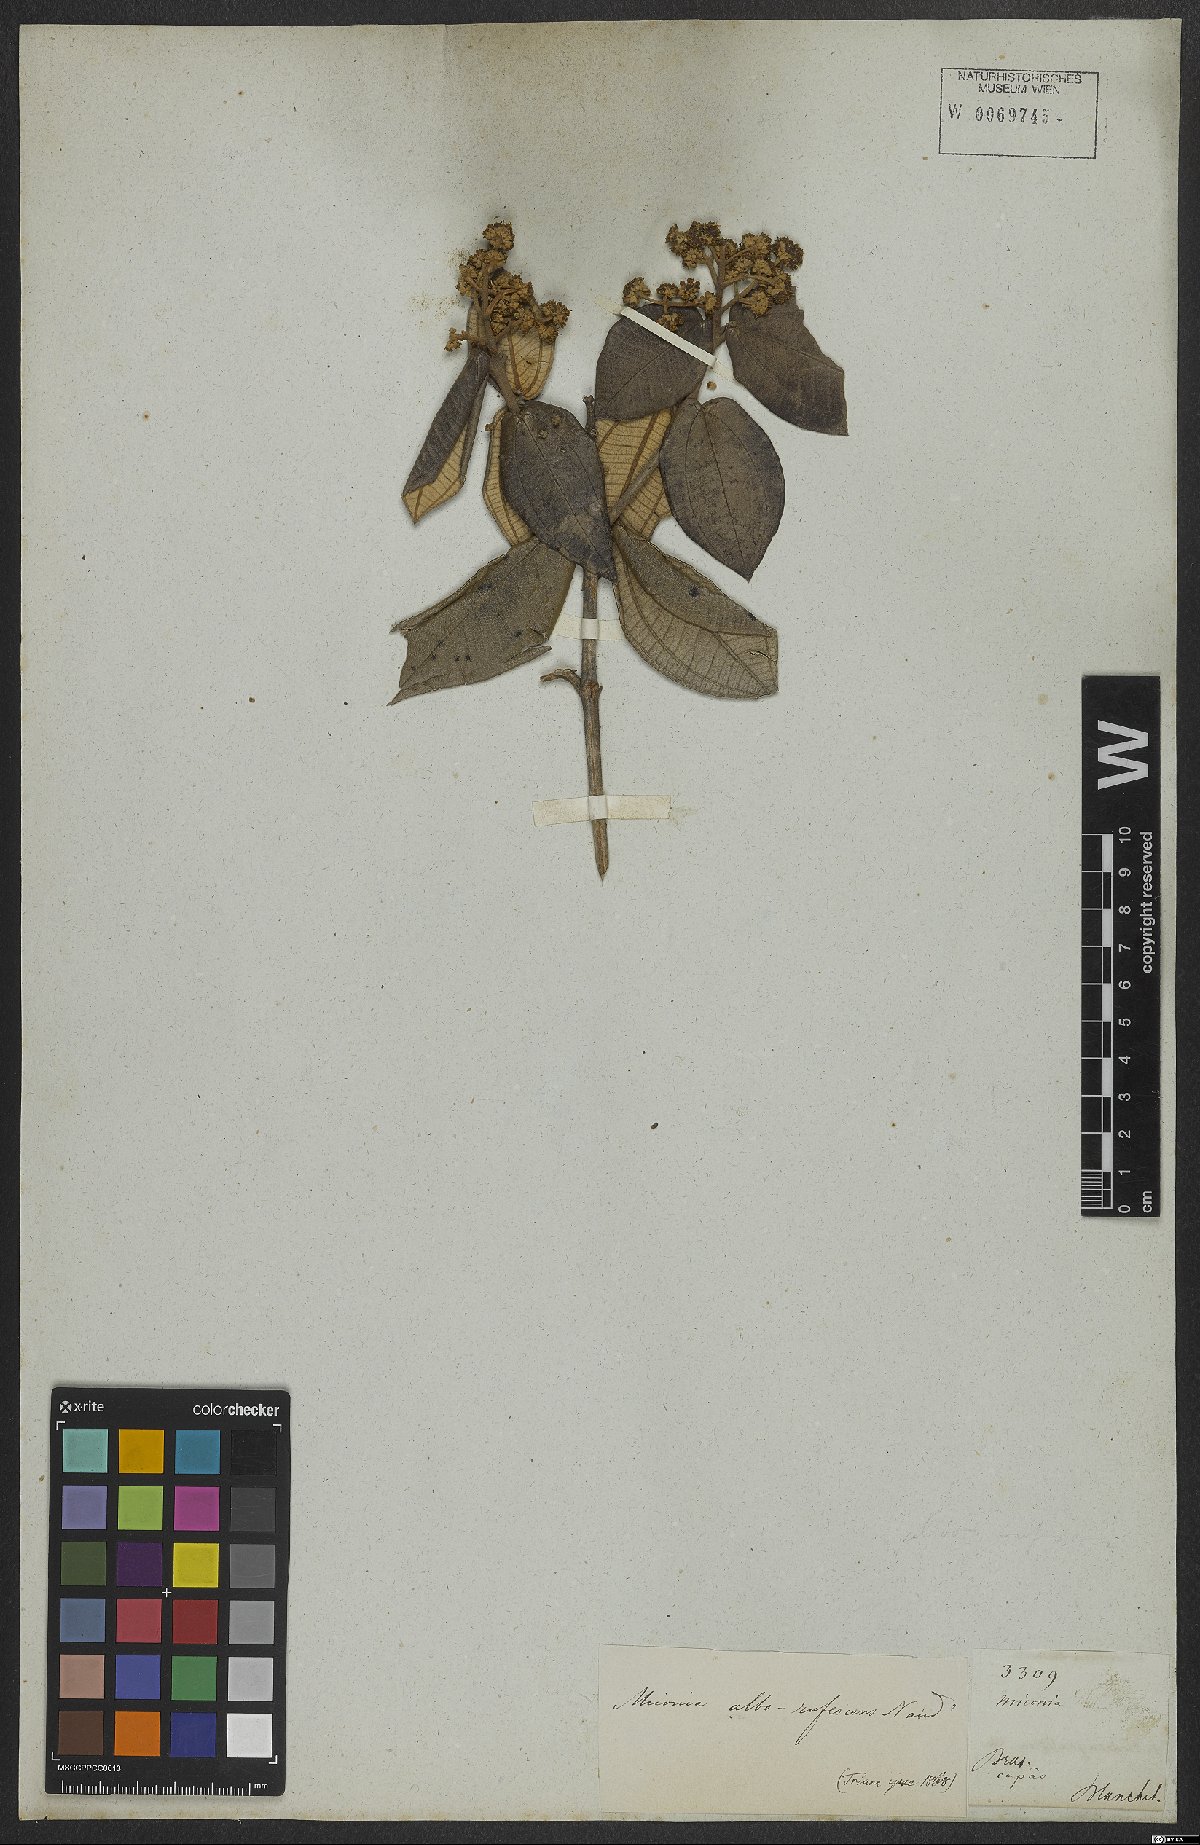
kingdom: Plantae
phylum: Tracheophyta
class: Magnoliopsida
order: Myrtales
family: Melastomataceae
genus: Miconia
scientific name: Miconia alborufescens
